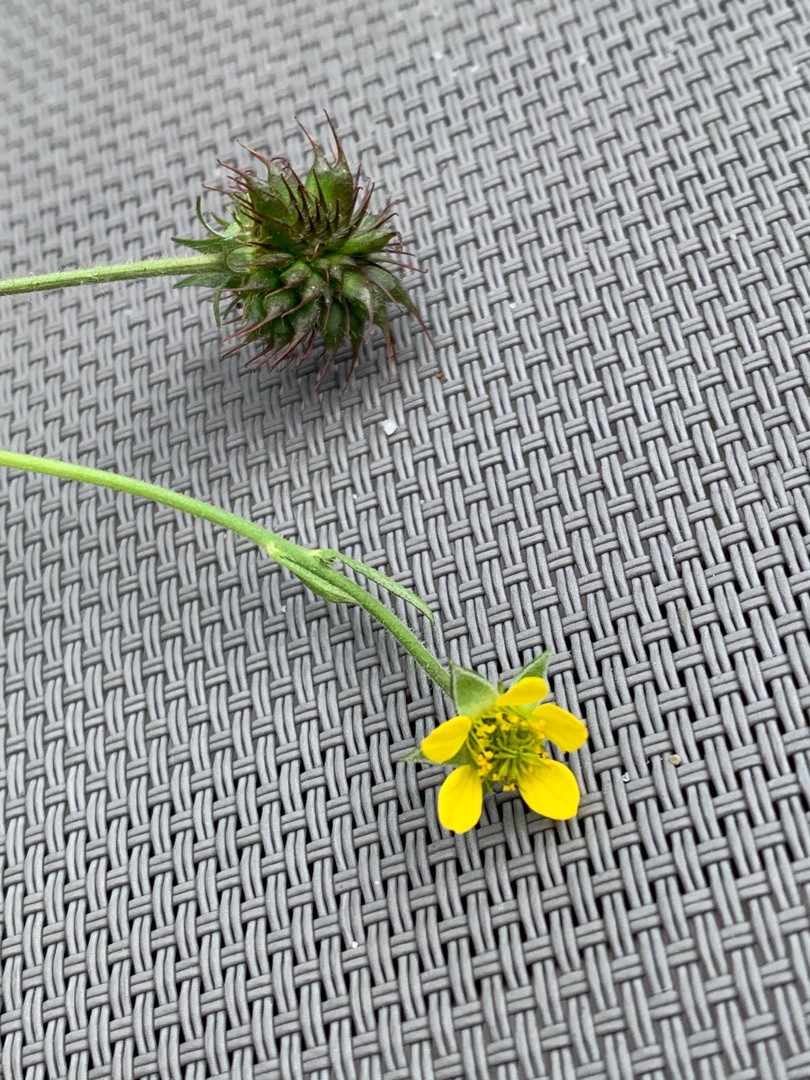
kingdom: Plantae
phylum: Tracheophyta
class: Magnoliopsida
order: Rosales
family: Rosaceae
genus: Geum
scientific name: Geum urbanum
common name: Feber-nellikerod
